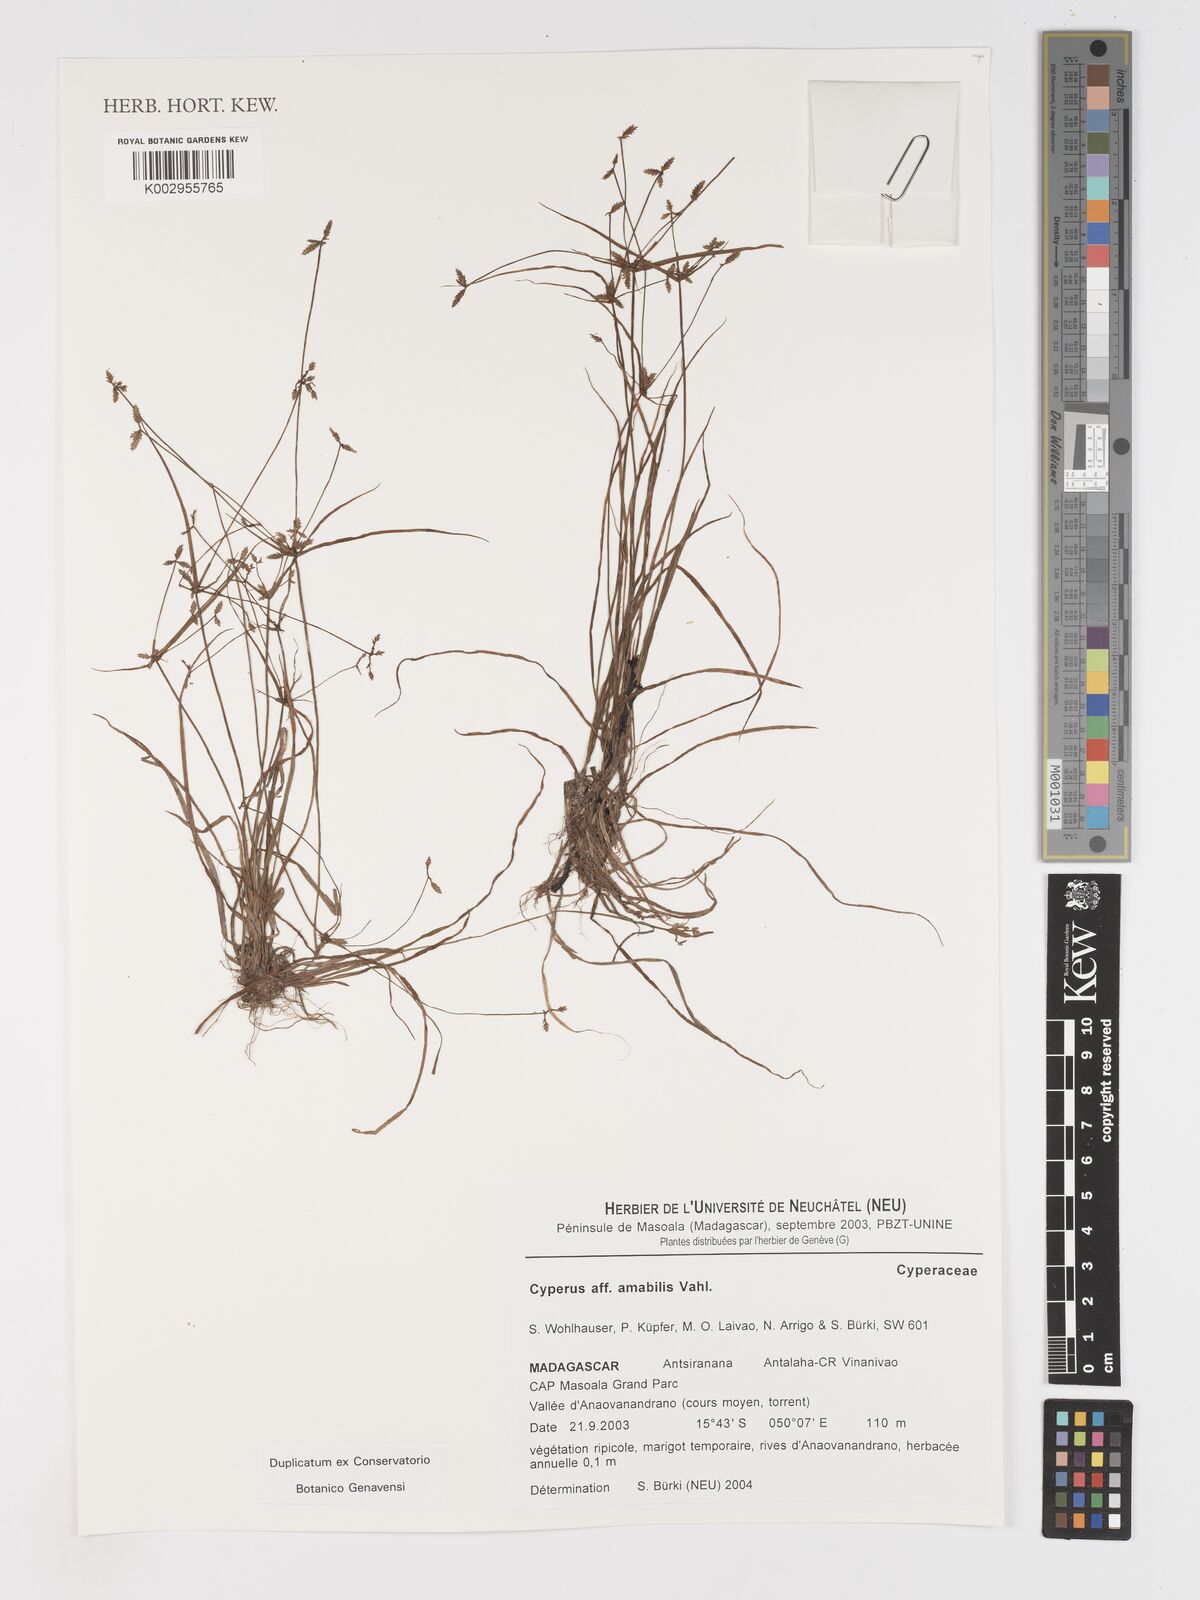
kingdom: Plantae
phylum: Tracheophyta
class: Liliopsida
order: Poales
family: Cyperaceae
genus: Cyperus
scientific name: Cyperus amabilis
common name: Foothill flat sedge
